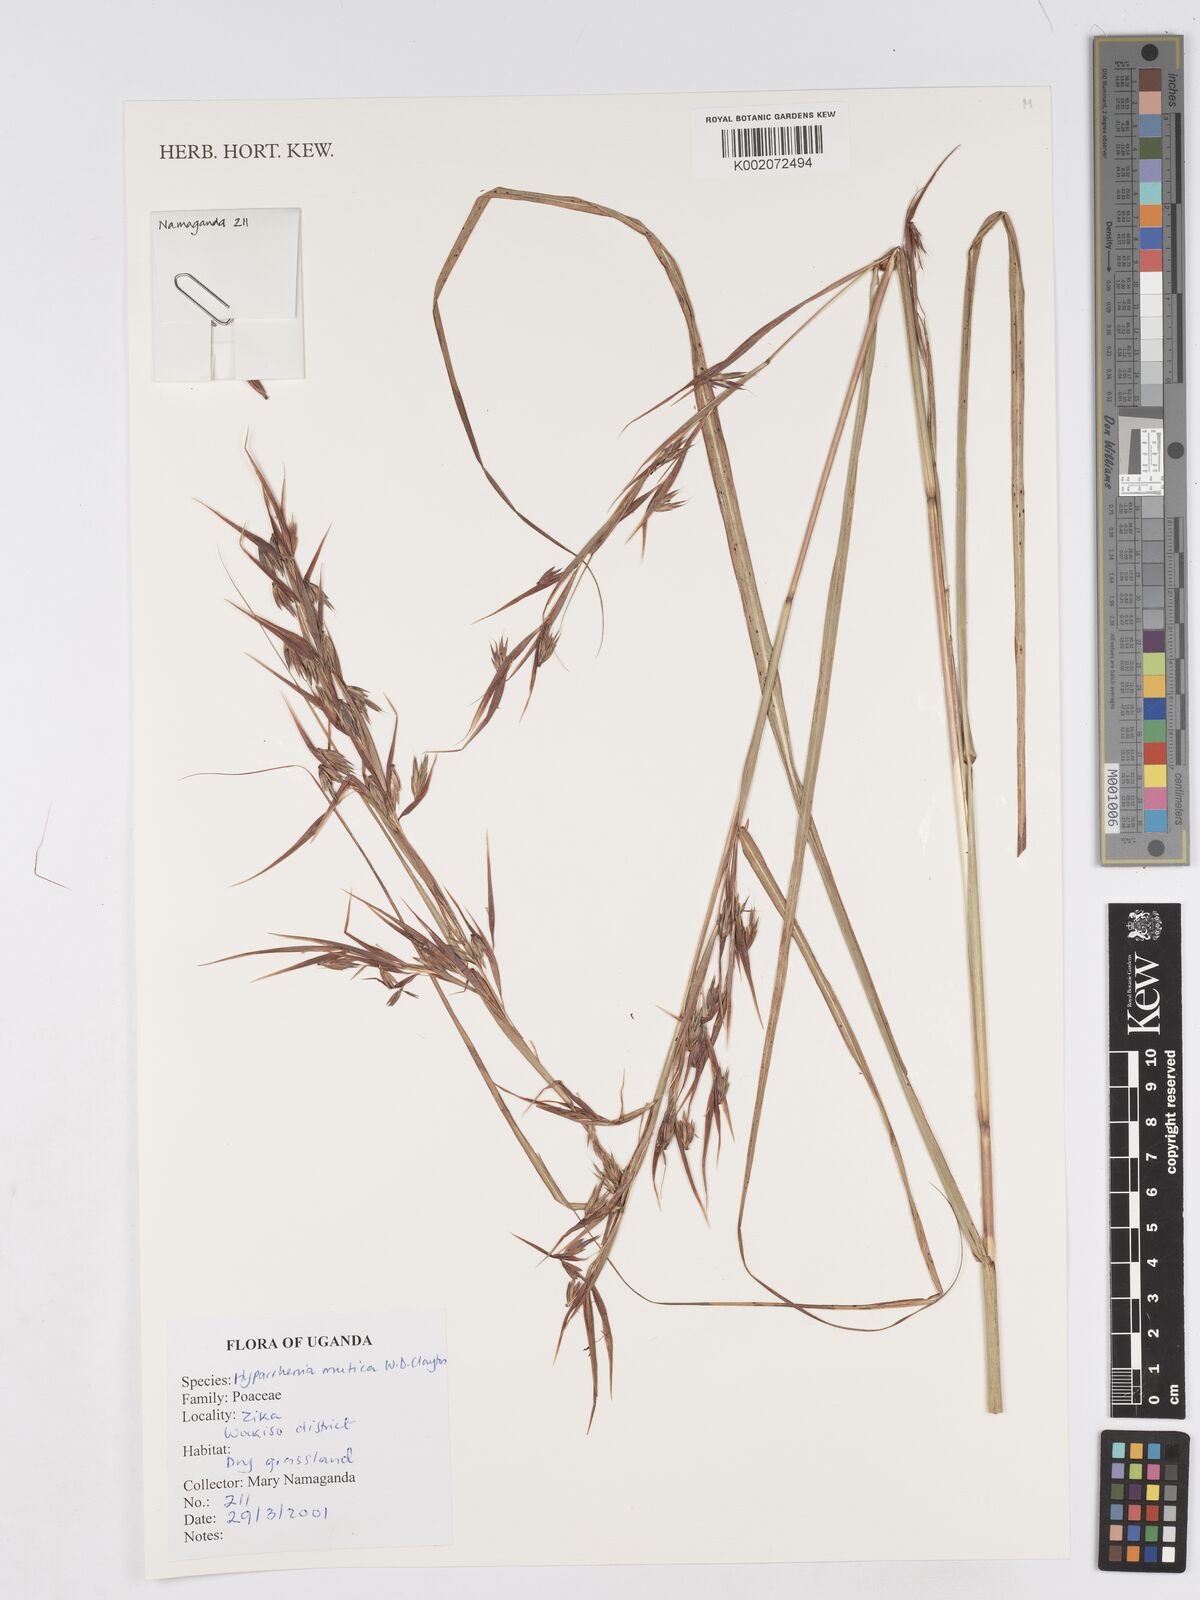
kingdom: Plantae
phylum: Tracheophyta
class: Liliopsida
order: Poales
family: Poaceae
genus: Hyparrhenia
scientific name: Hyparrhenia diplandra
